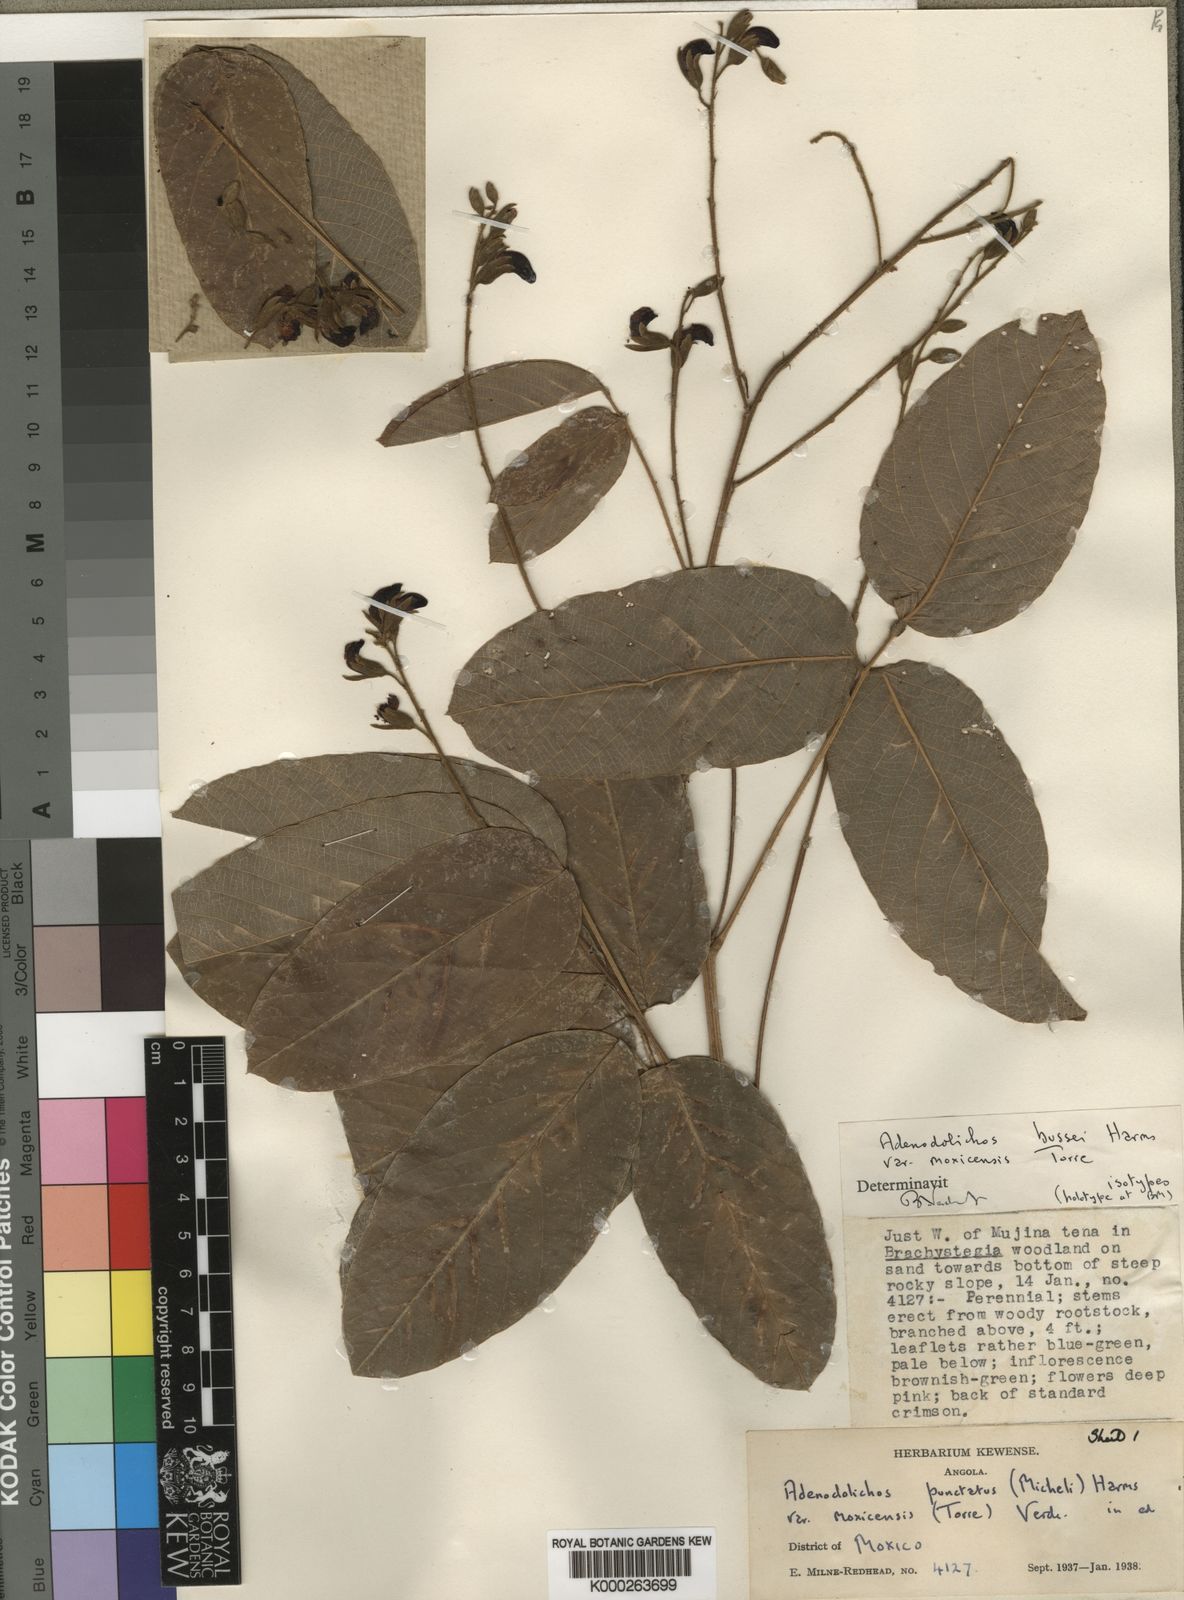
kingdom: Plantae
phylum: Tracheophyta
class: Magnoliopsida
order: Fabales
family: Fabaceae
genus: Adenodolichos
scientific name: Adenodolichos punctatus
